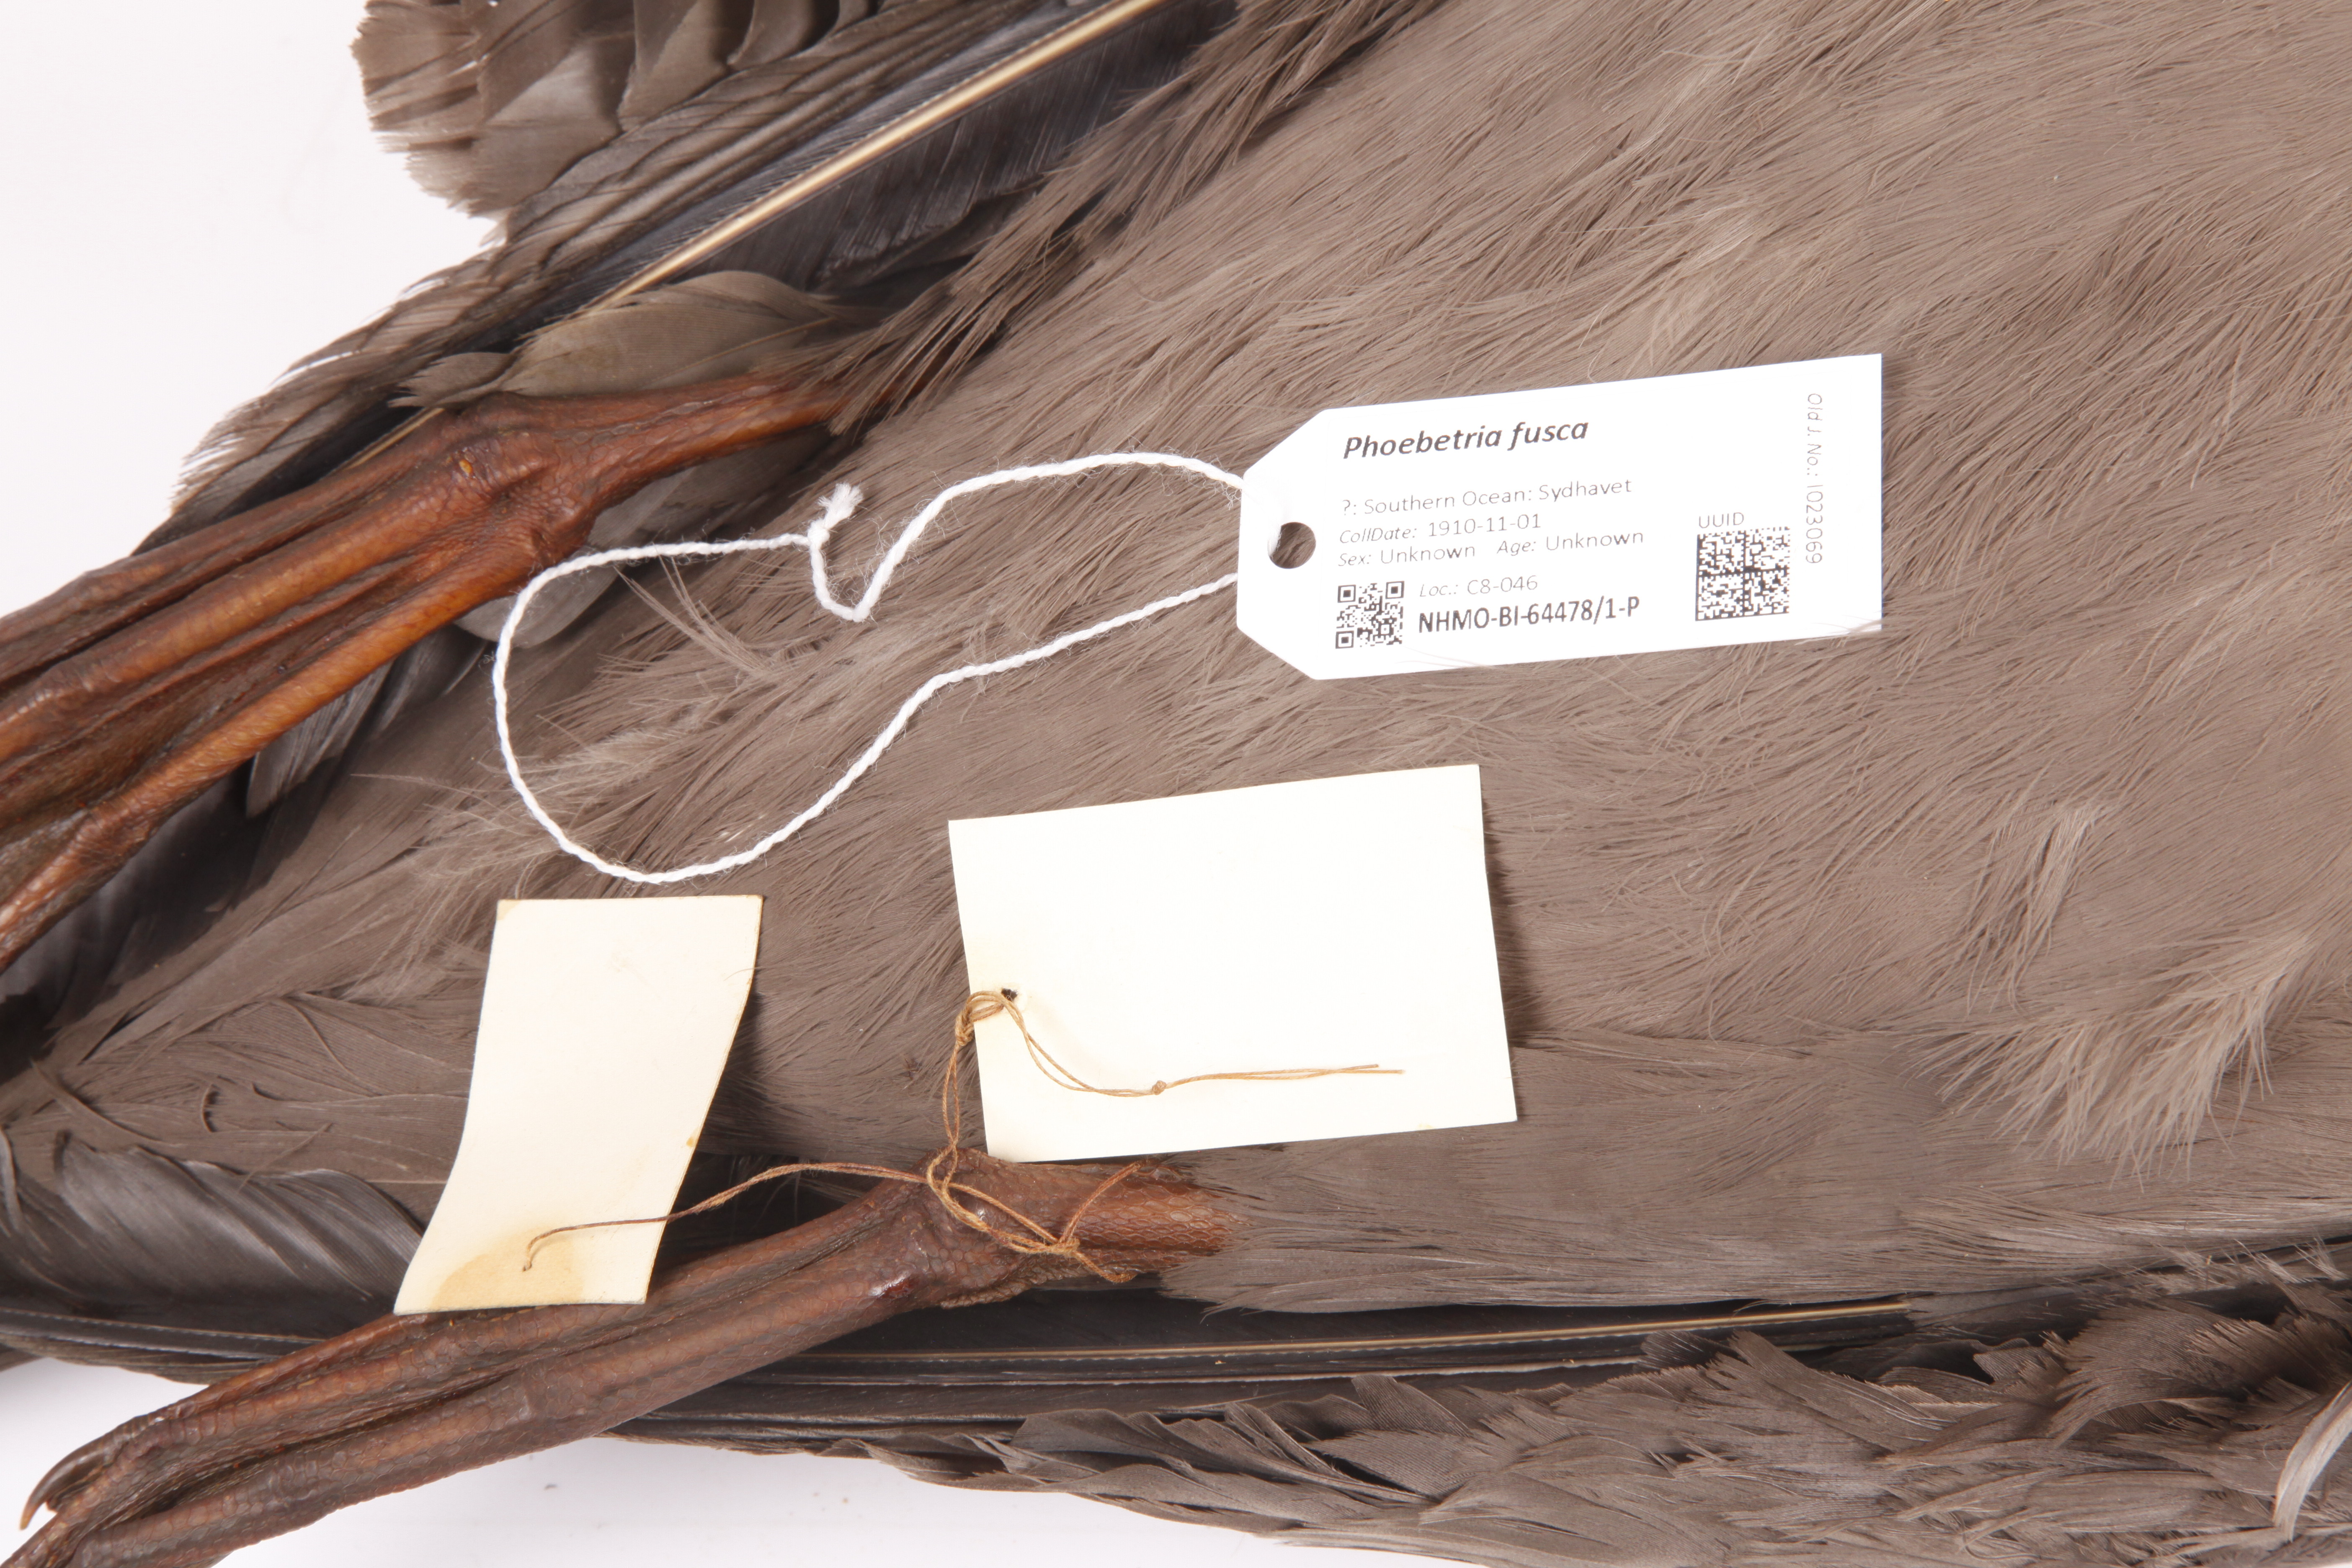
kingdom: Animalia
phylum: Chordata
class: Aves
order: Procellariiformes
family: Diomedeidae
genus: Phoebetria
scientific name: Phoebetria fusca
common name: Sooty albatross
